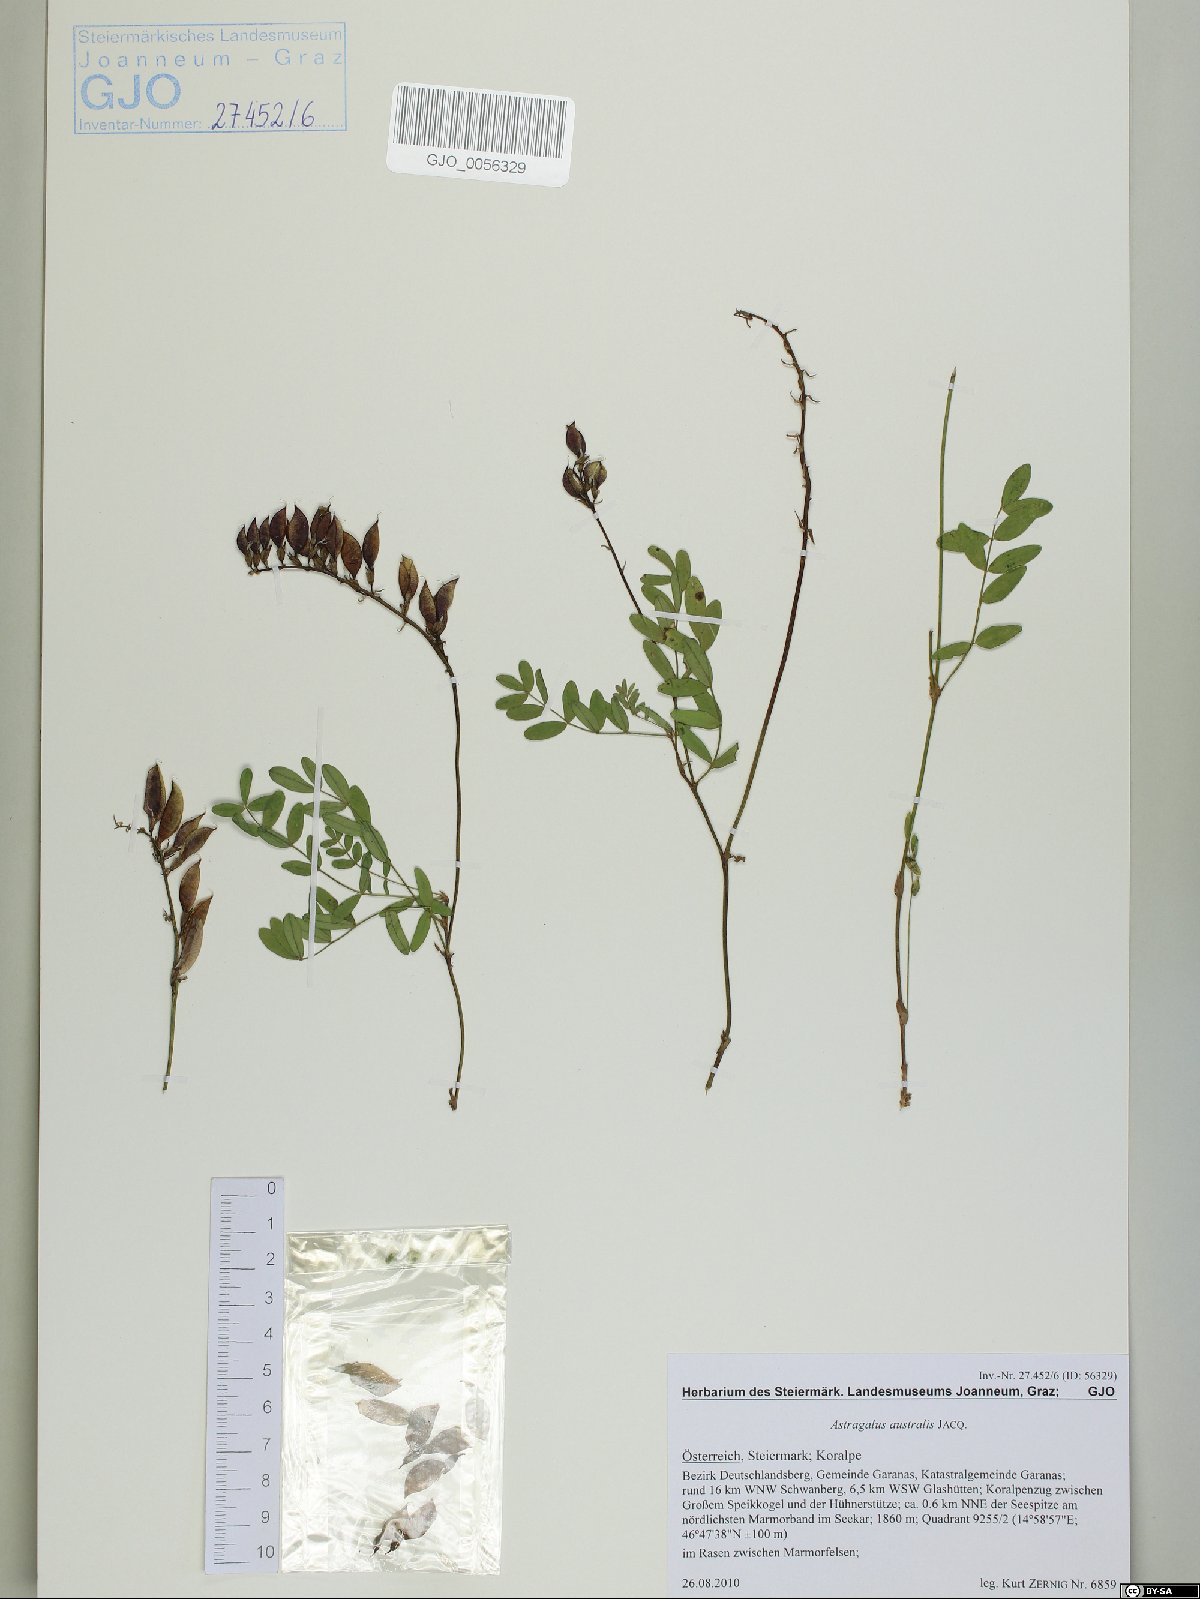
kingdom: Plantae
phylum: Tracheophyta
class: Magnoliopsida
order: Fabales
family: Fabaceae
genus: Astragalus
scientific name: Astragalus australis
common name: Indian milk-vetch
